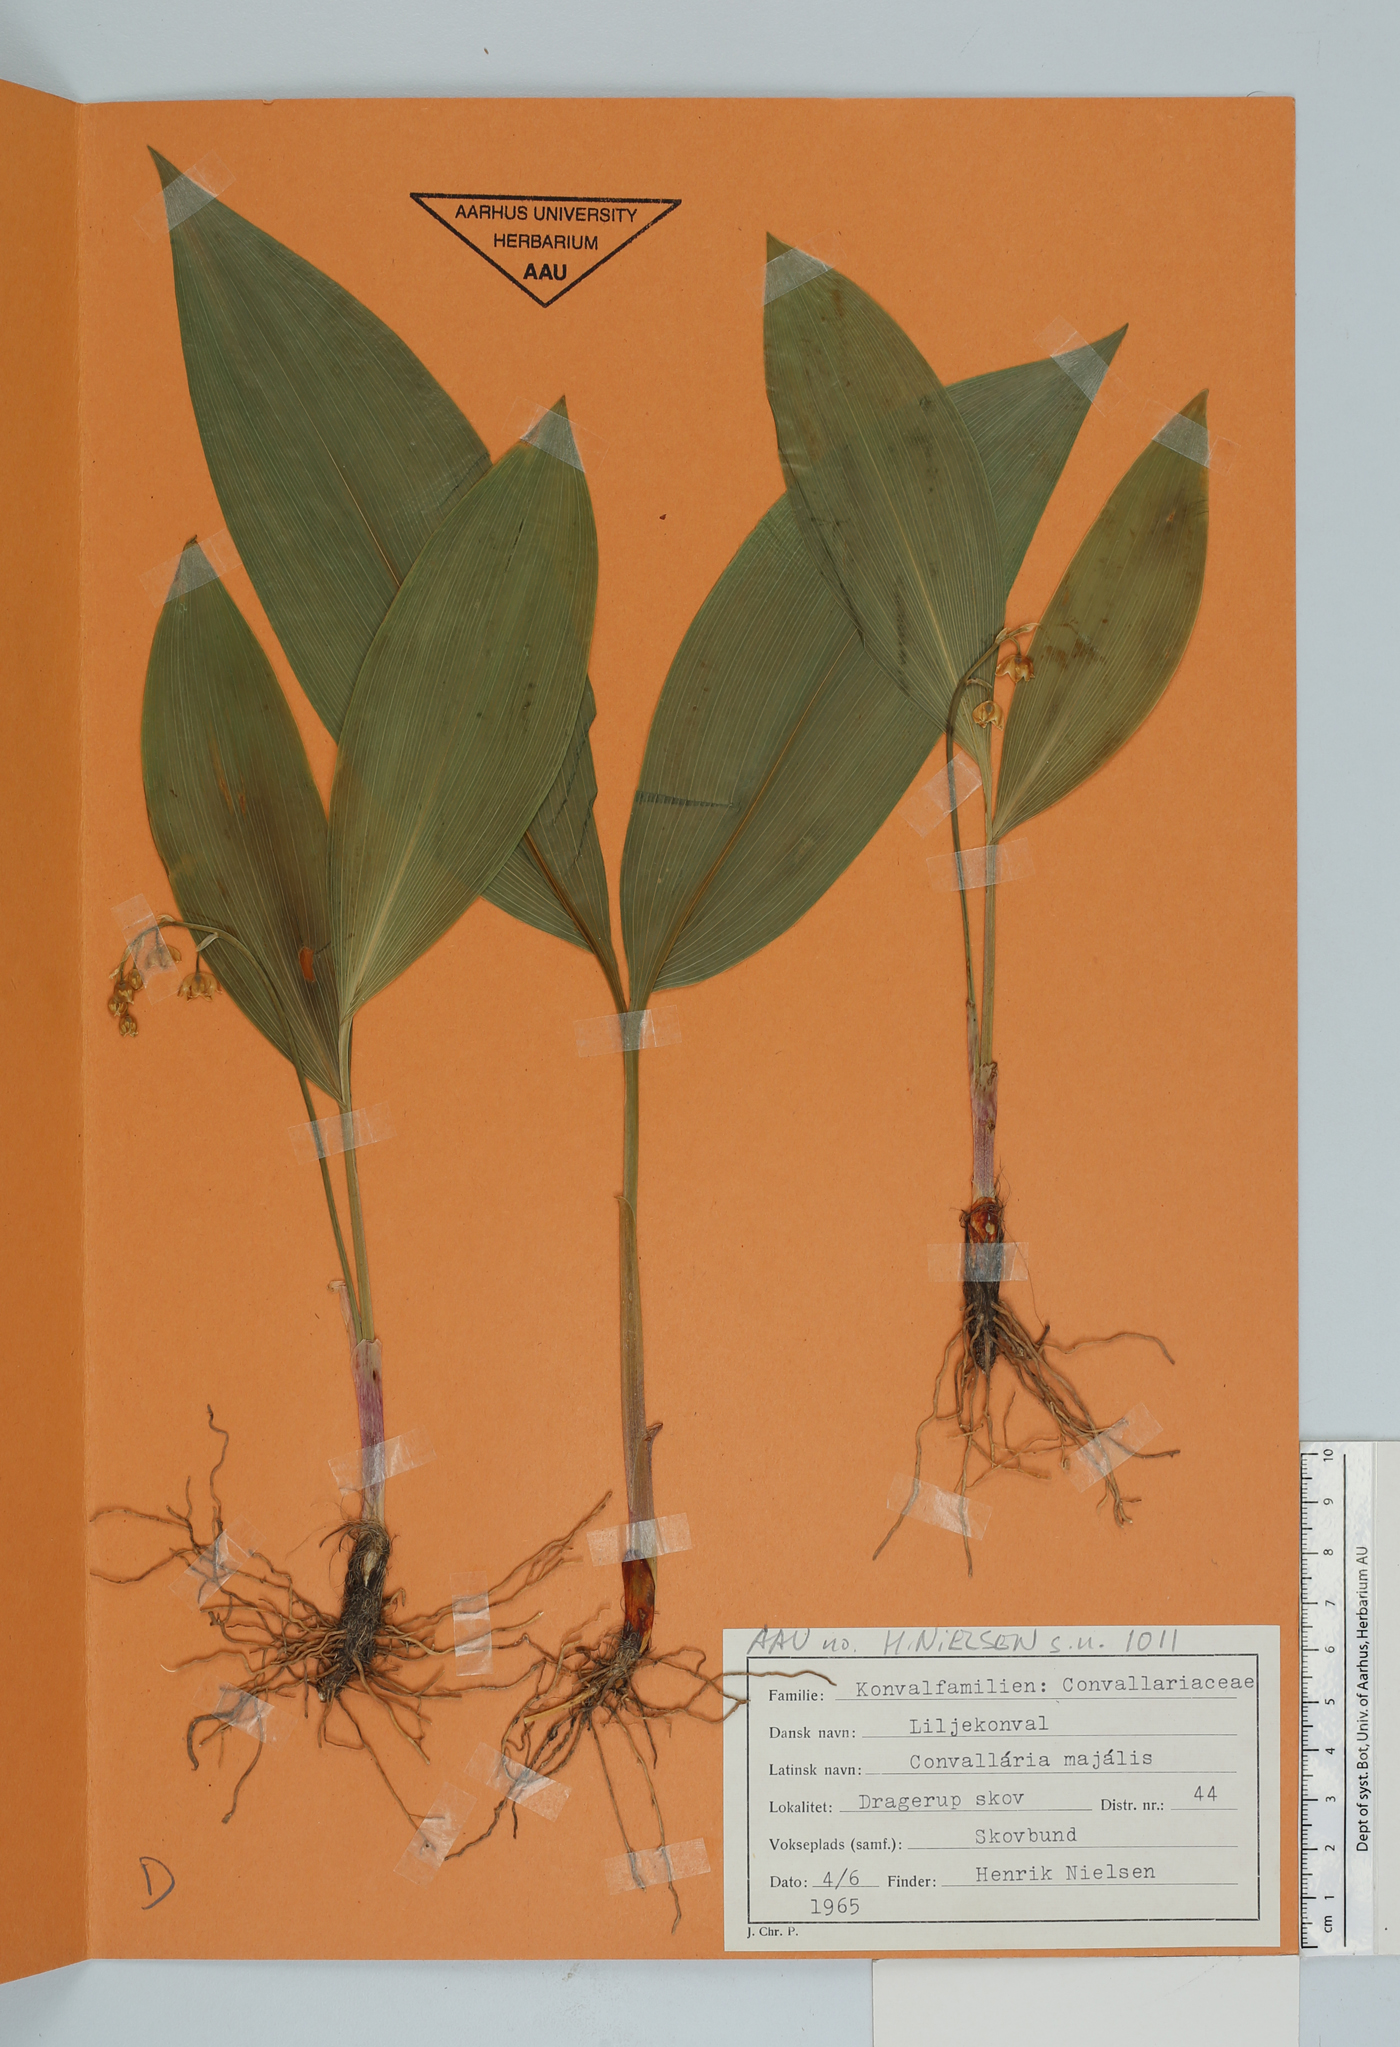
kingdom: Plantae
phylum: Tracheophyta
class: Liliopsida
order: Asparagales
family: Asparagaceae
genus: Convallaria
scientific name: Convallaria majalis
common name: Lily-of-the-valley
